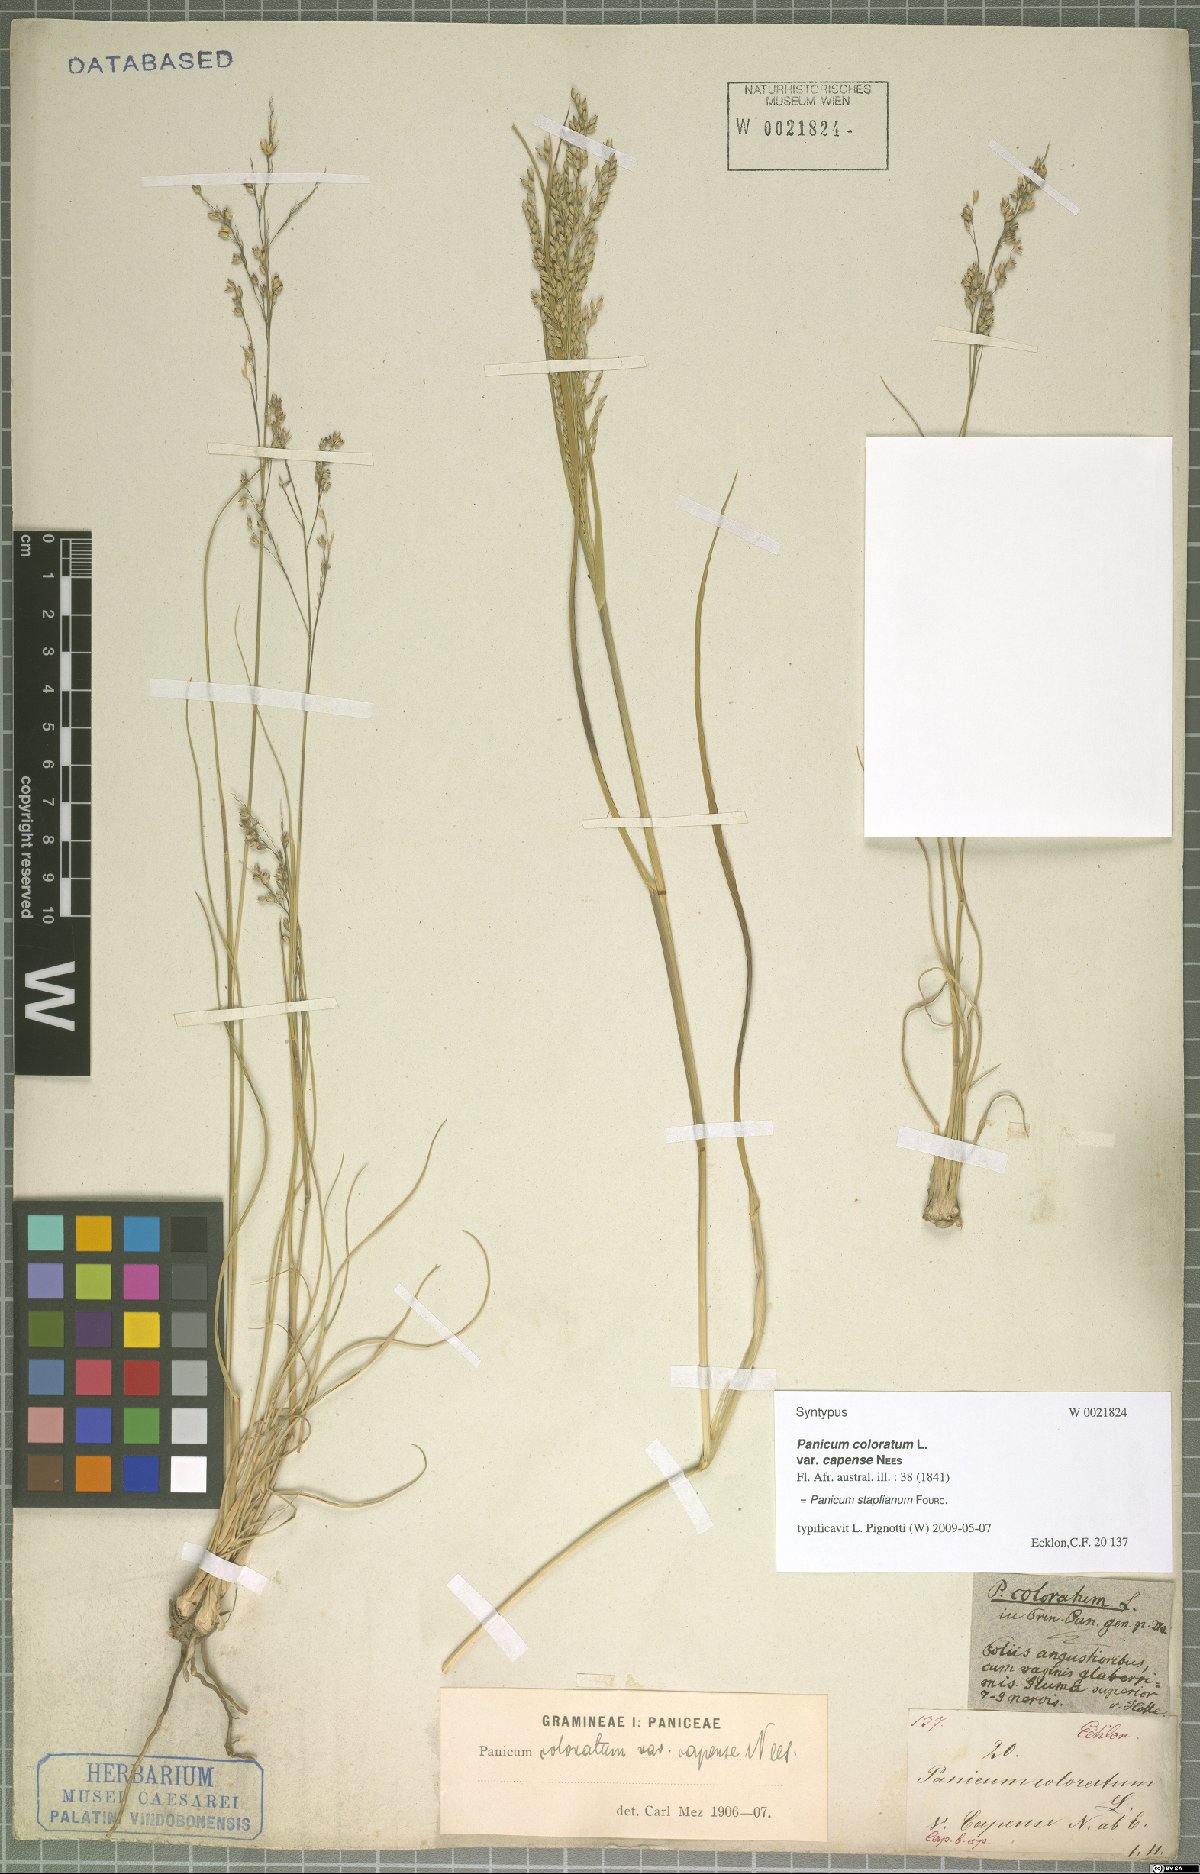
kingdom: Plantae
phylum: Tracheophyta
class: Liliopsida
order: Poales
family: Poaceae
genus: Panicum
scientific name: Panicum stapfianum
